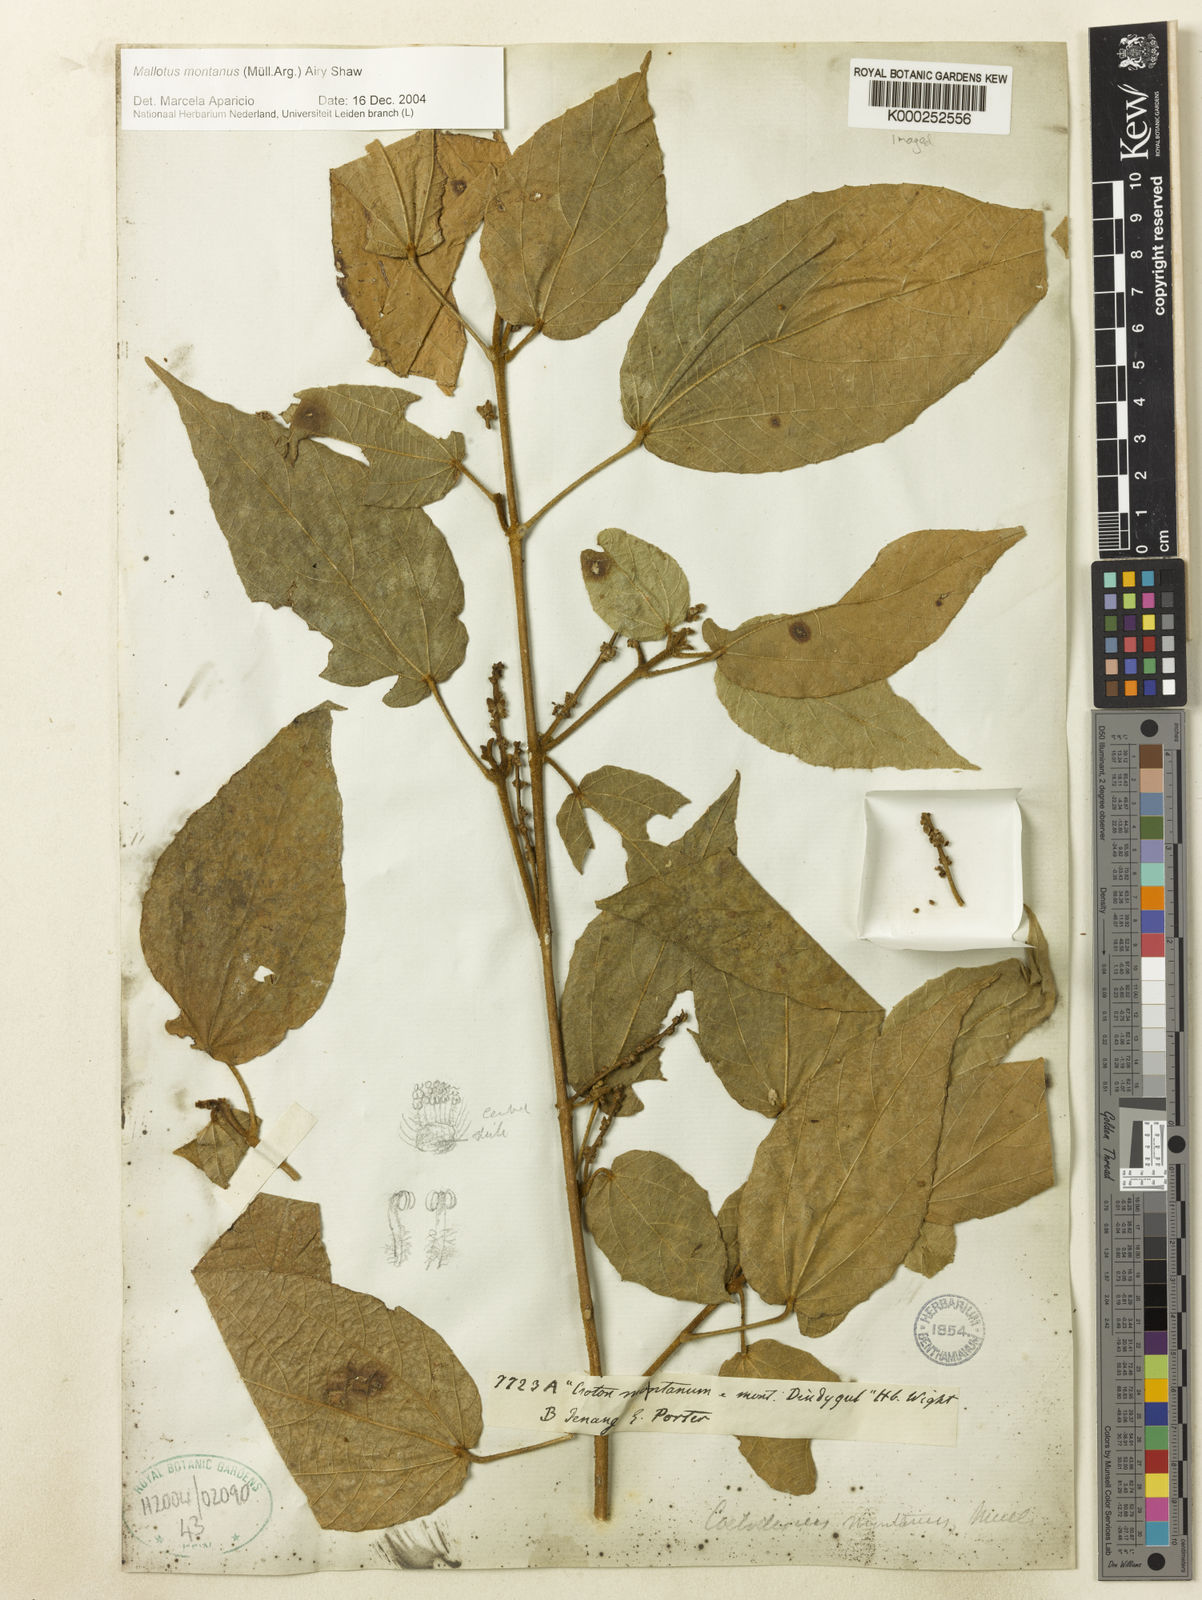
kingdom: Plantae
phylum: Tracheophyta
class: Magnoliopsida
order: Malpighiales
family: Euphorbiaceae
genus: Mallotus
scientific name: Mallotus montanus
